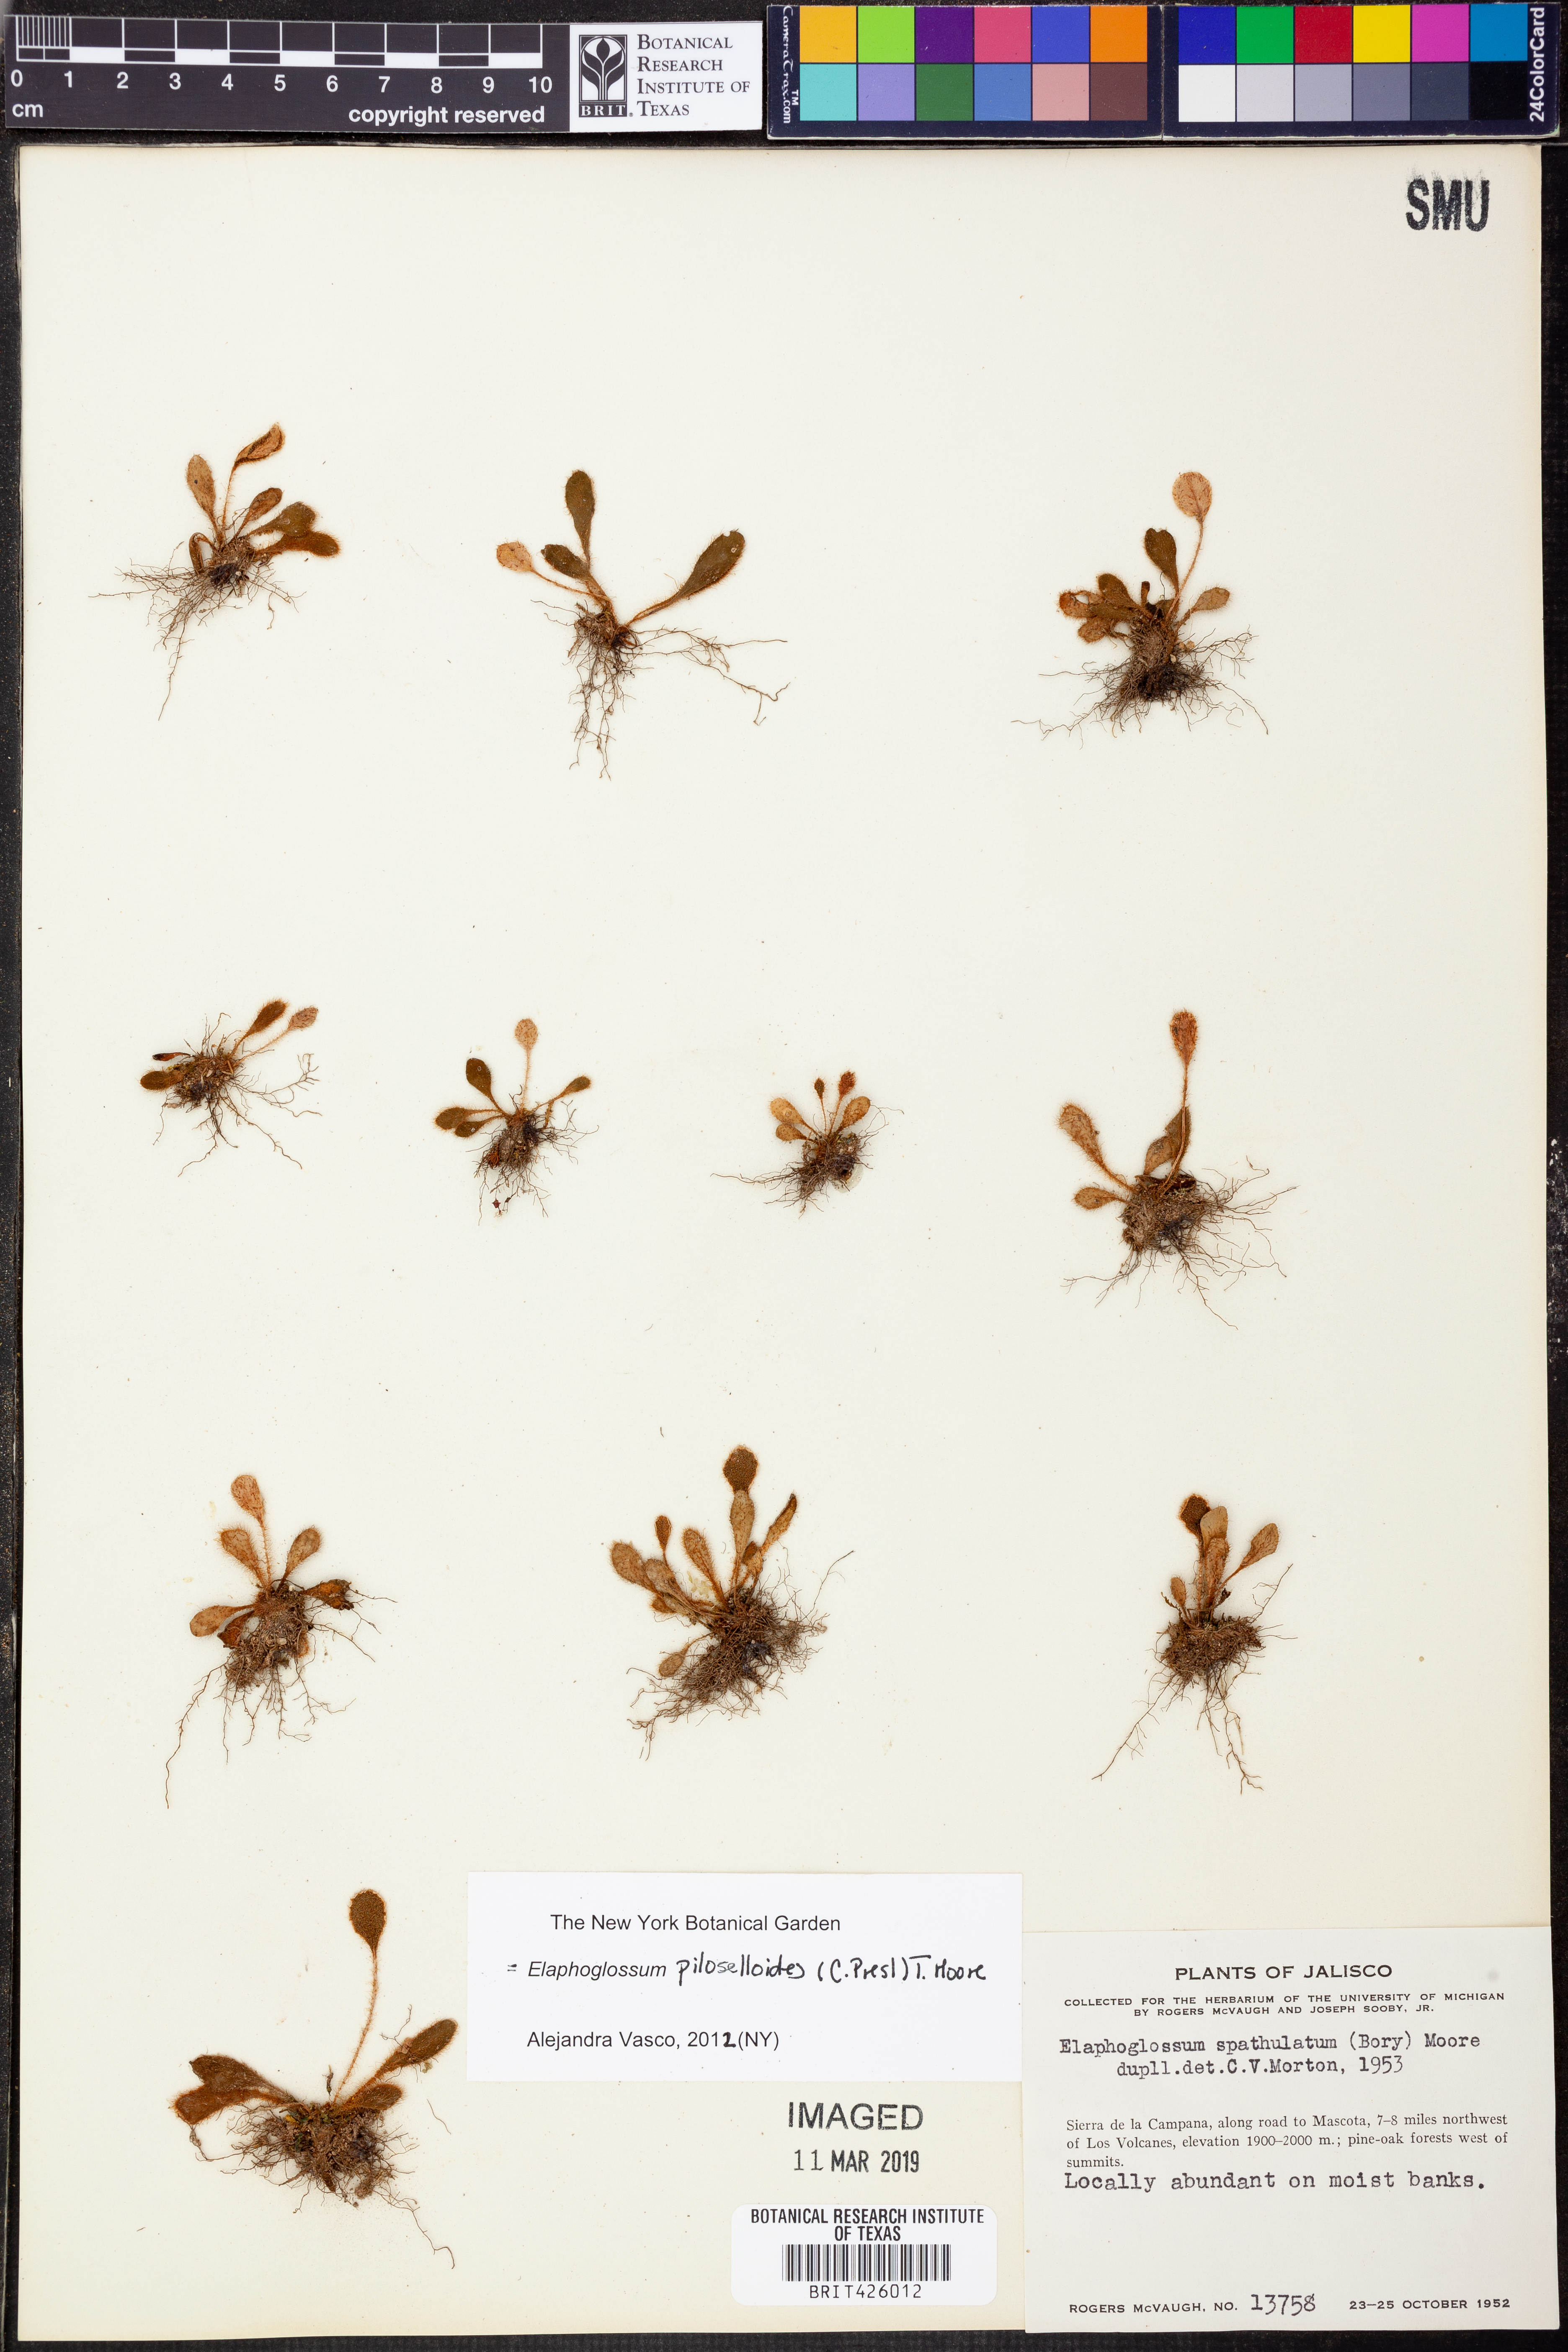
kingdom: Plantae
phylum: Tracheophyta
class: Polypodiopsida
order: Polypodiales
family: Dryopteridaceae
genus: Elaphoglossum
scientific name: Elaphoglossum piloselloides
